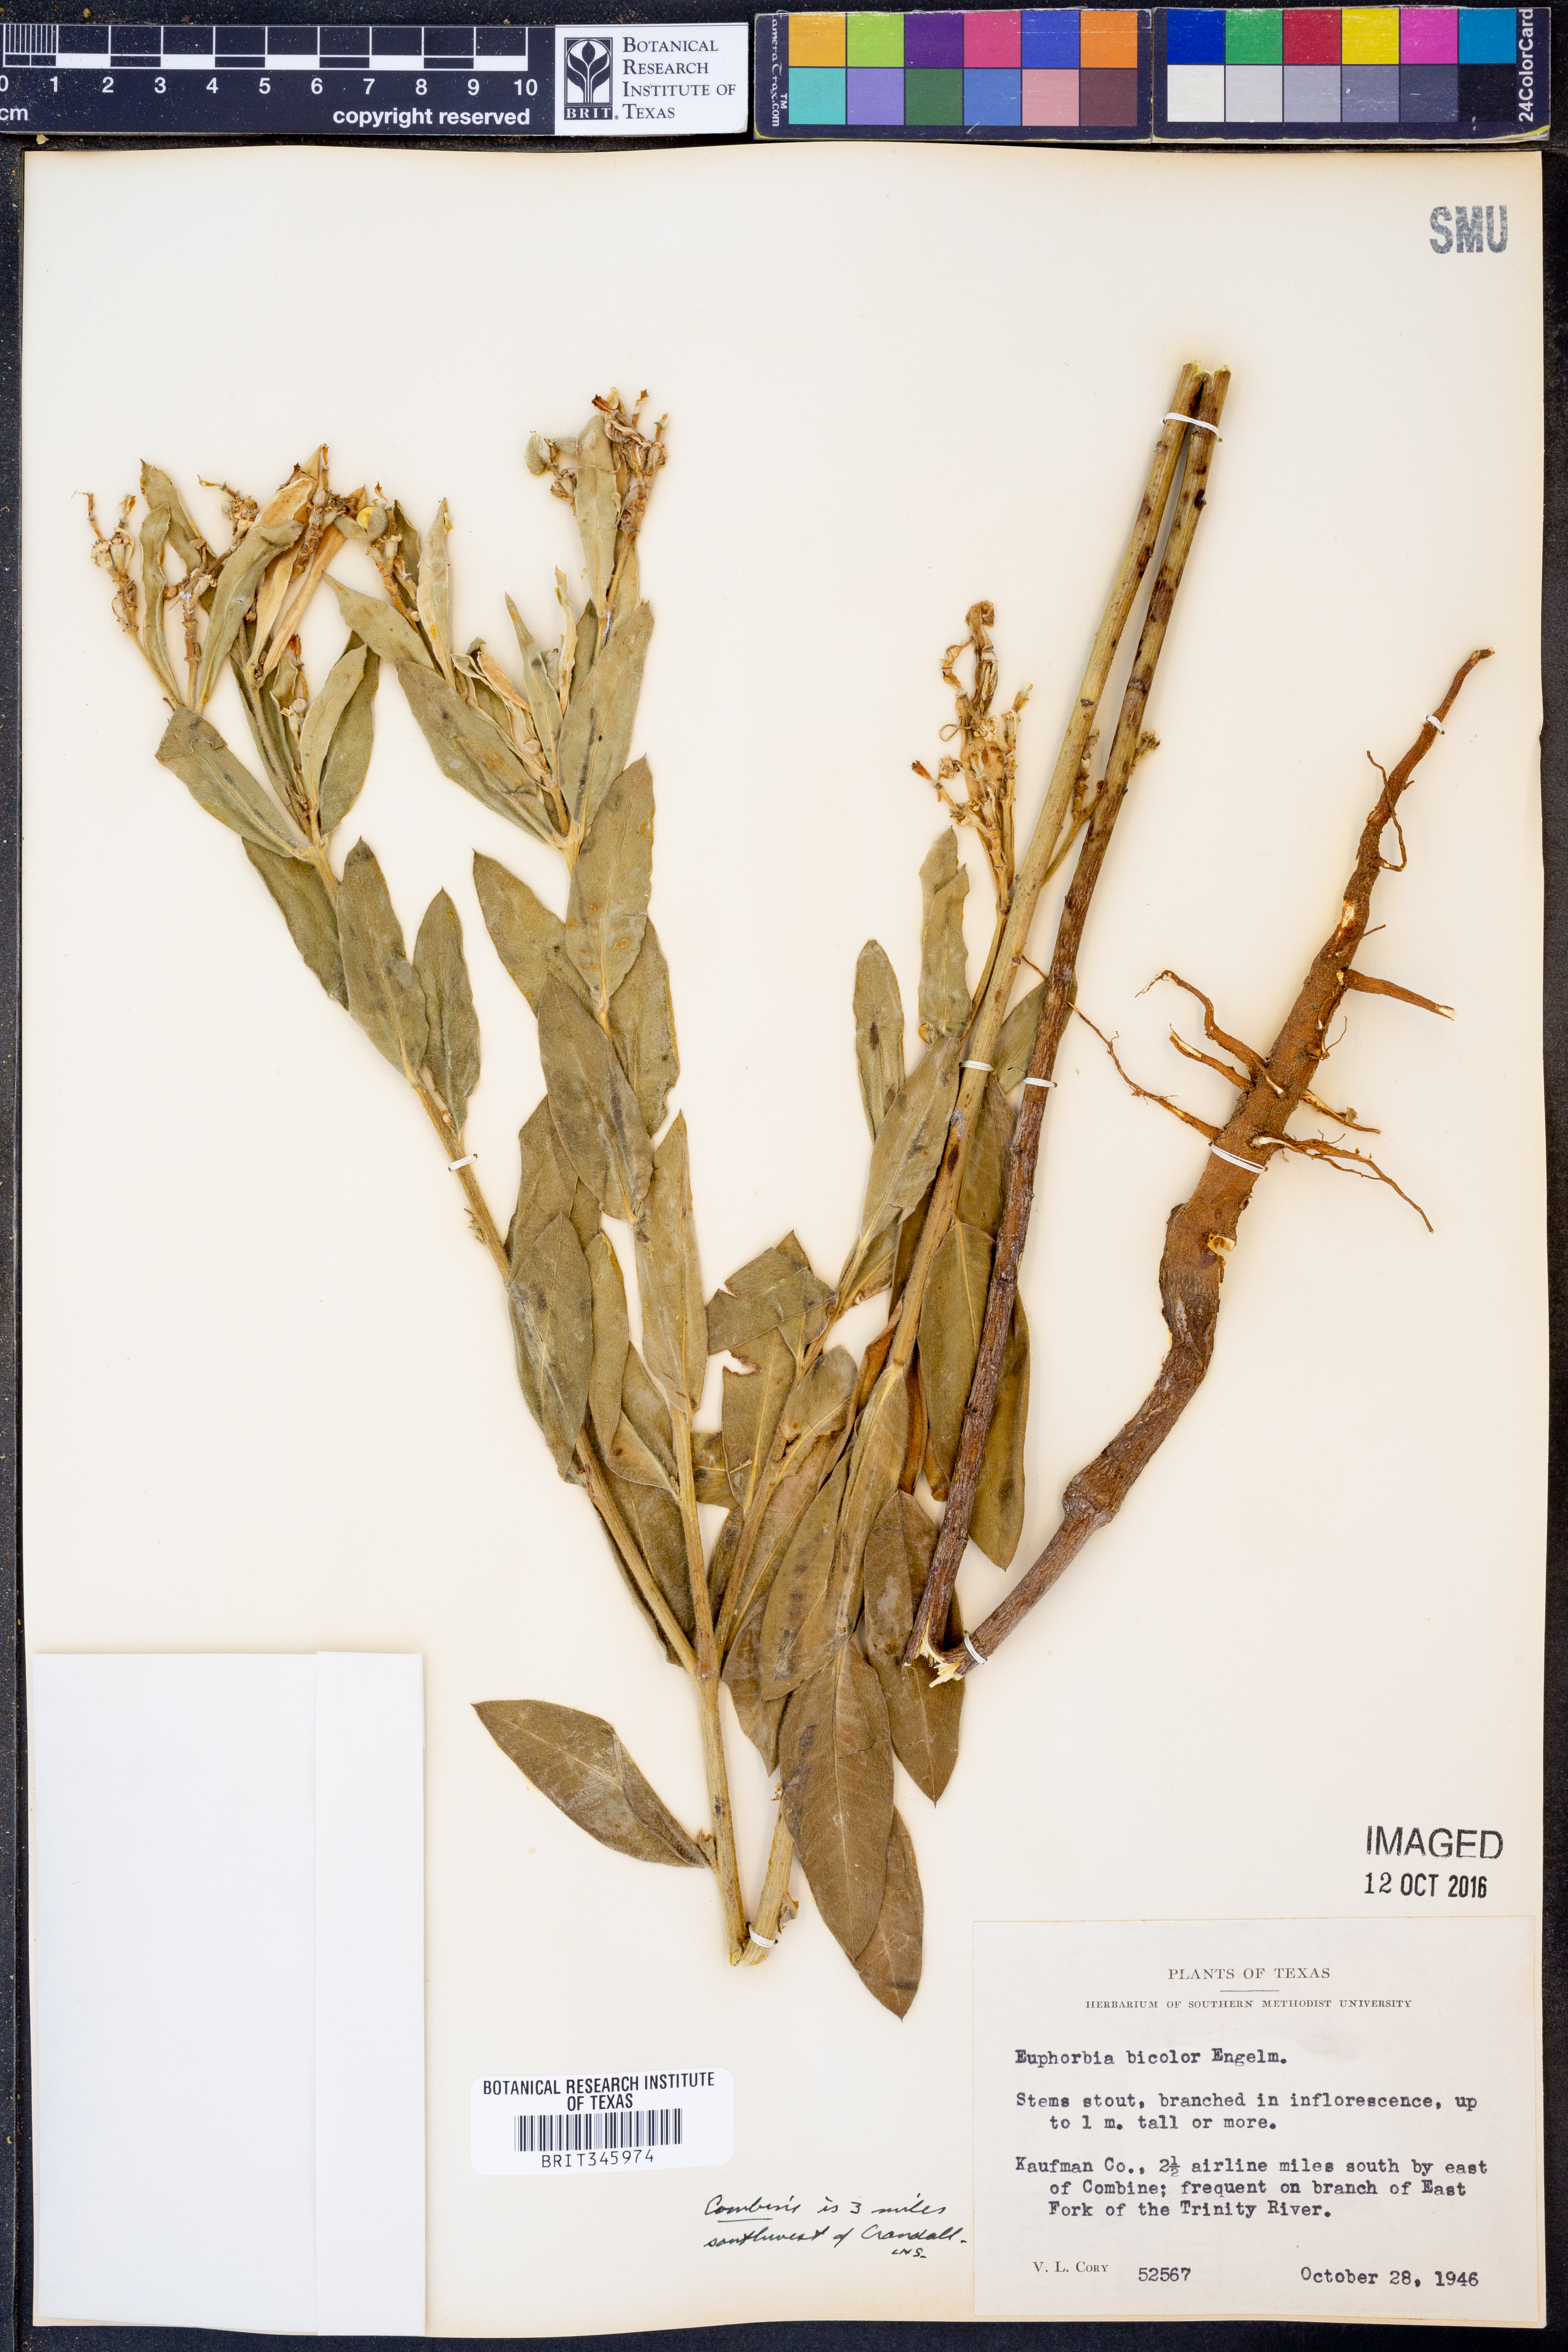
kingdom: Plantae
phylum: Tracheophyta
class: Magnoliopsida
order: Malpighiales
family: Euphorbiaceae
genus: Euphorbia
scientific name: Euphorbia bicolor
